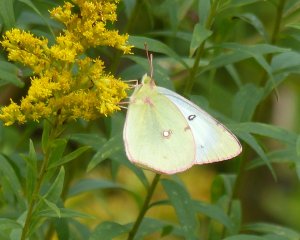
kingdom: Animalia
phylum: Arthropoda
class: Insecta
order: Lepidoptera
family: Pieridae
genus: Colias
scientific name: Colias philodice
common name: Clouded Sulphur
